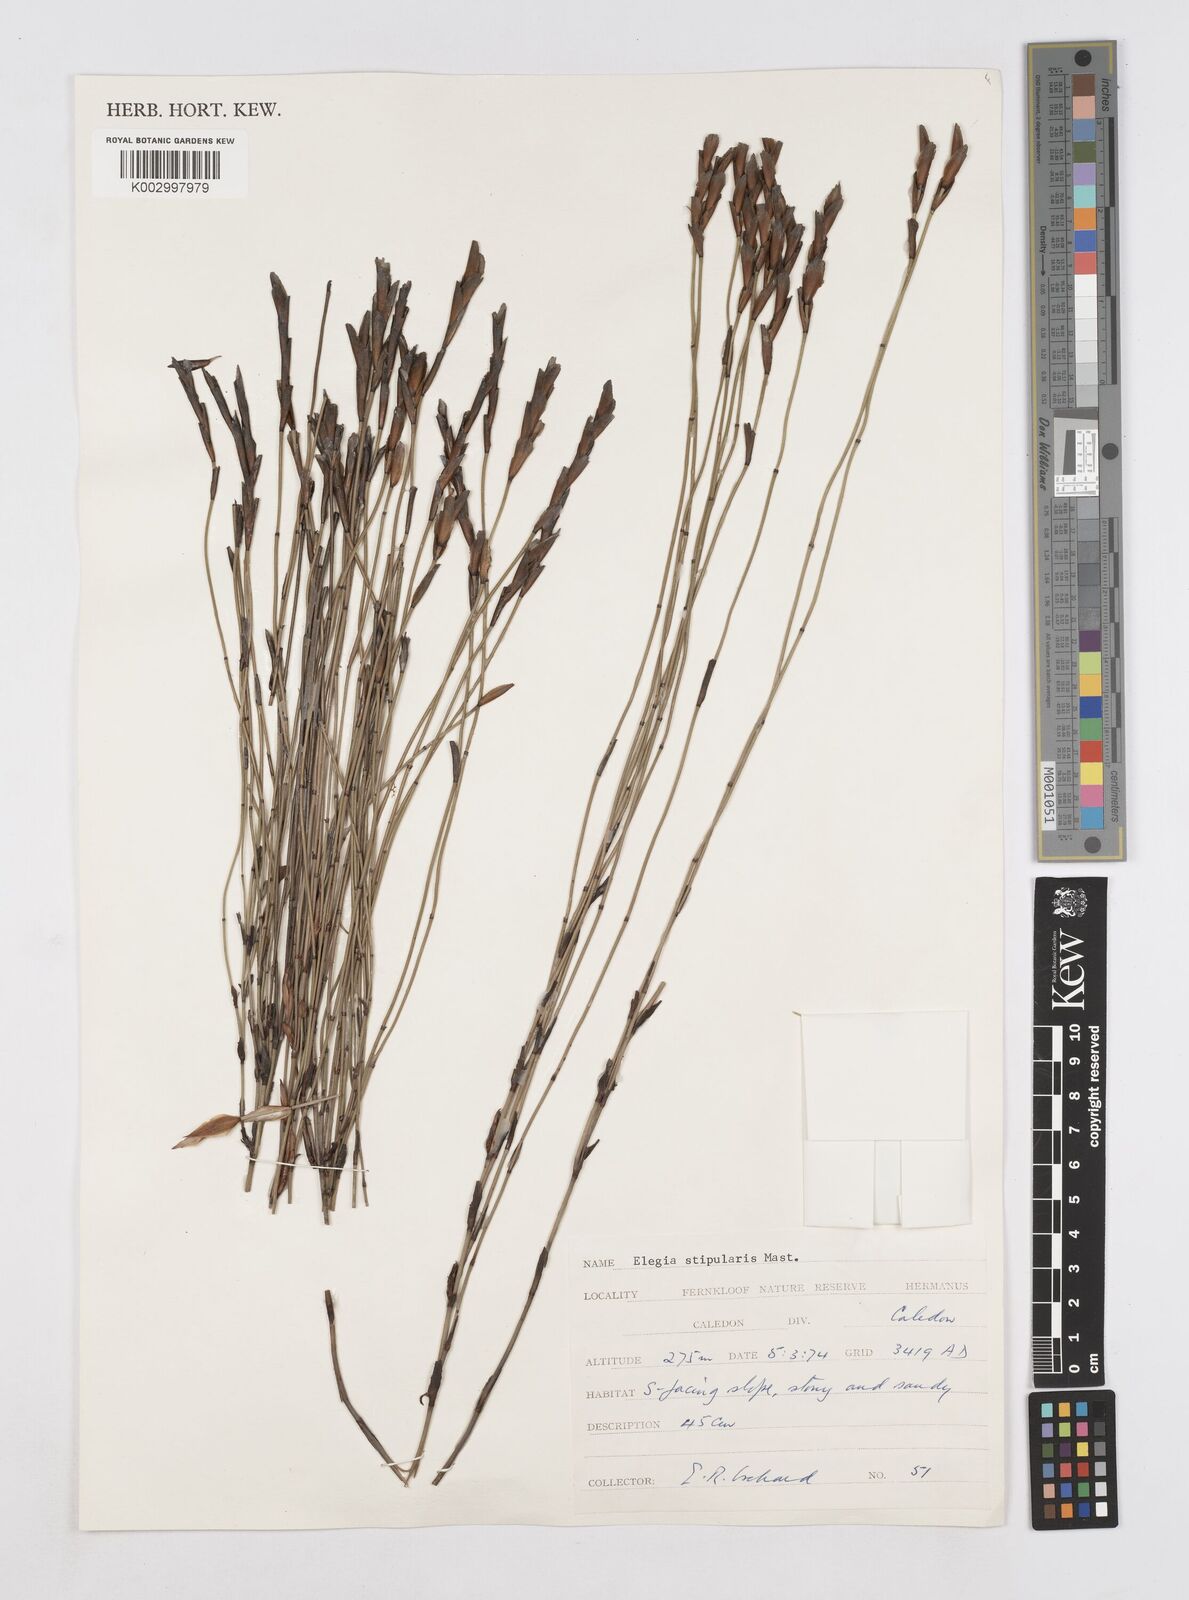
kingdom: Plantae
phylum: Tracheophyta
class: Liliopsida
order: Poales
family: Restionaceae
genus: Elegia
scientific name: Elegia stipularis
